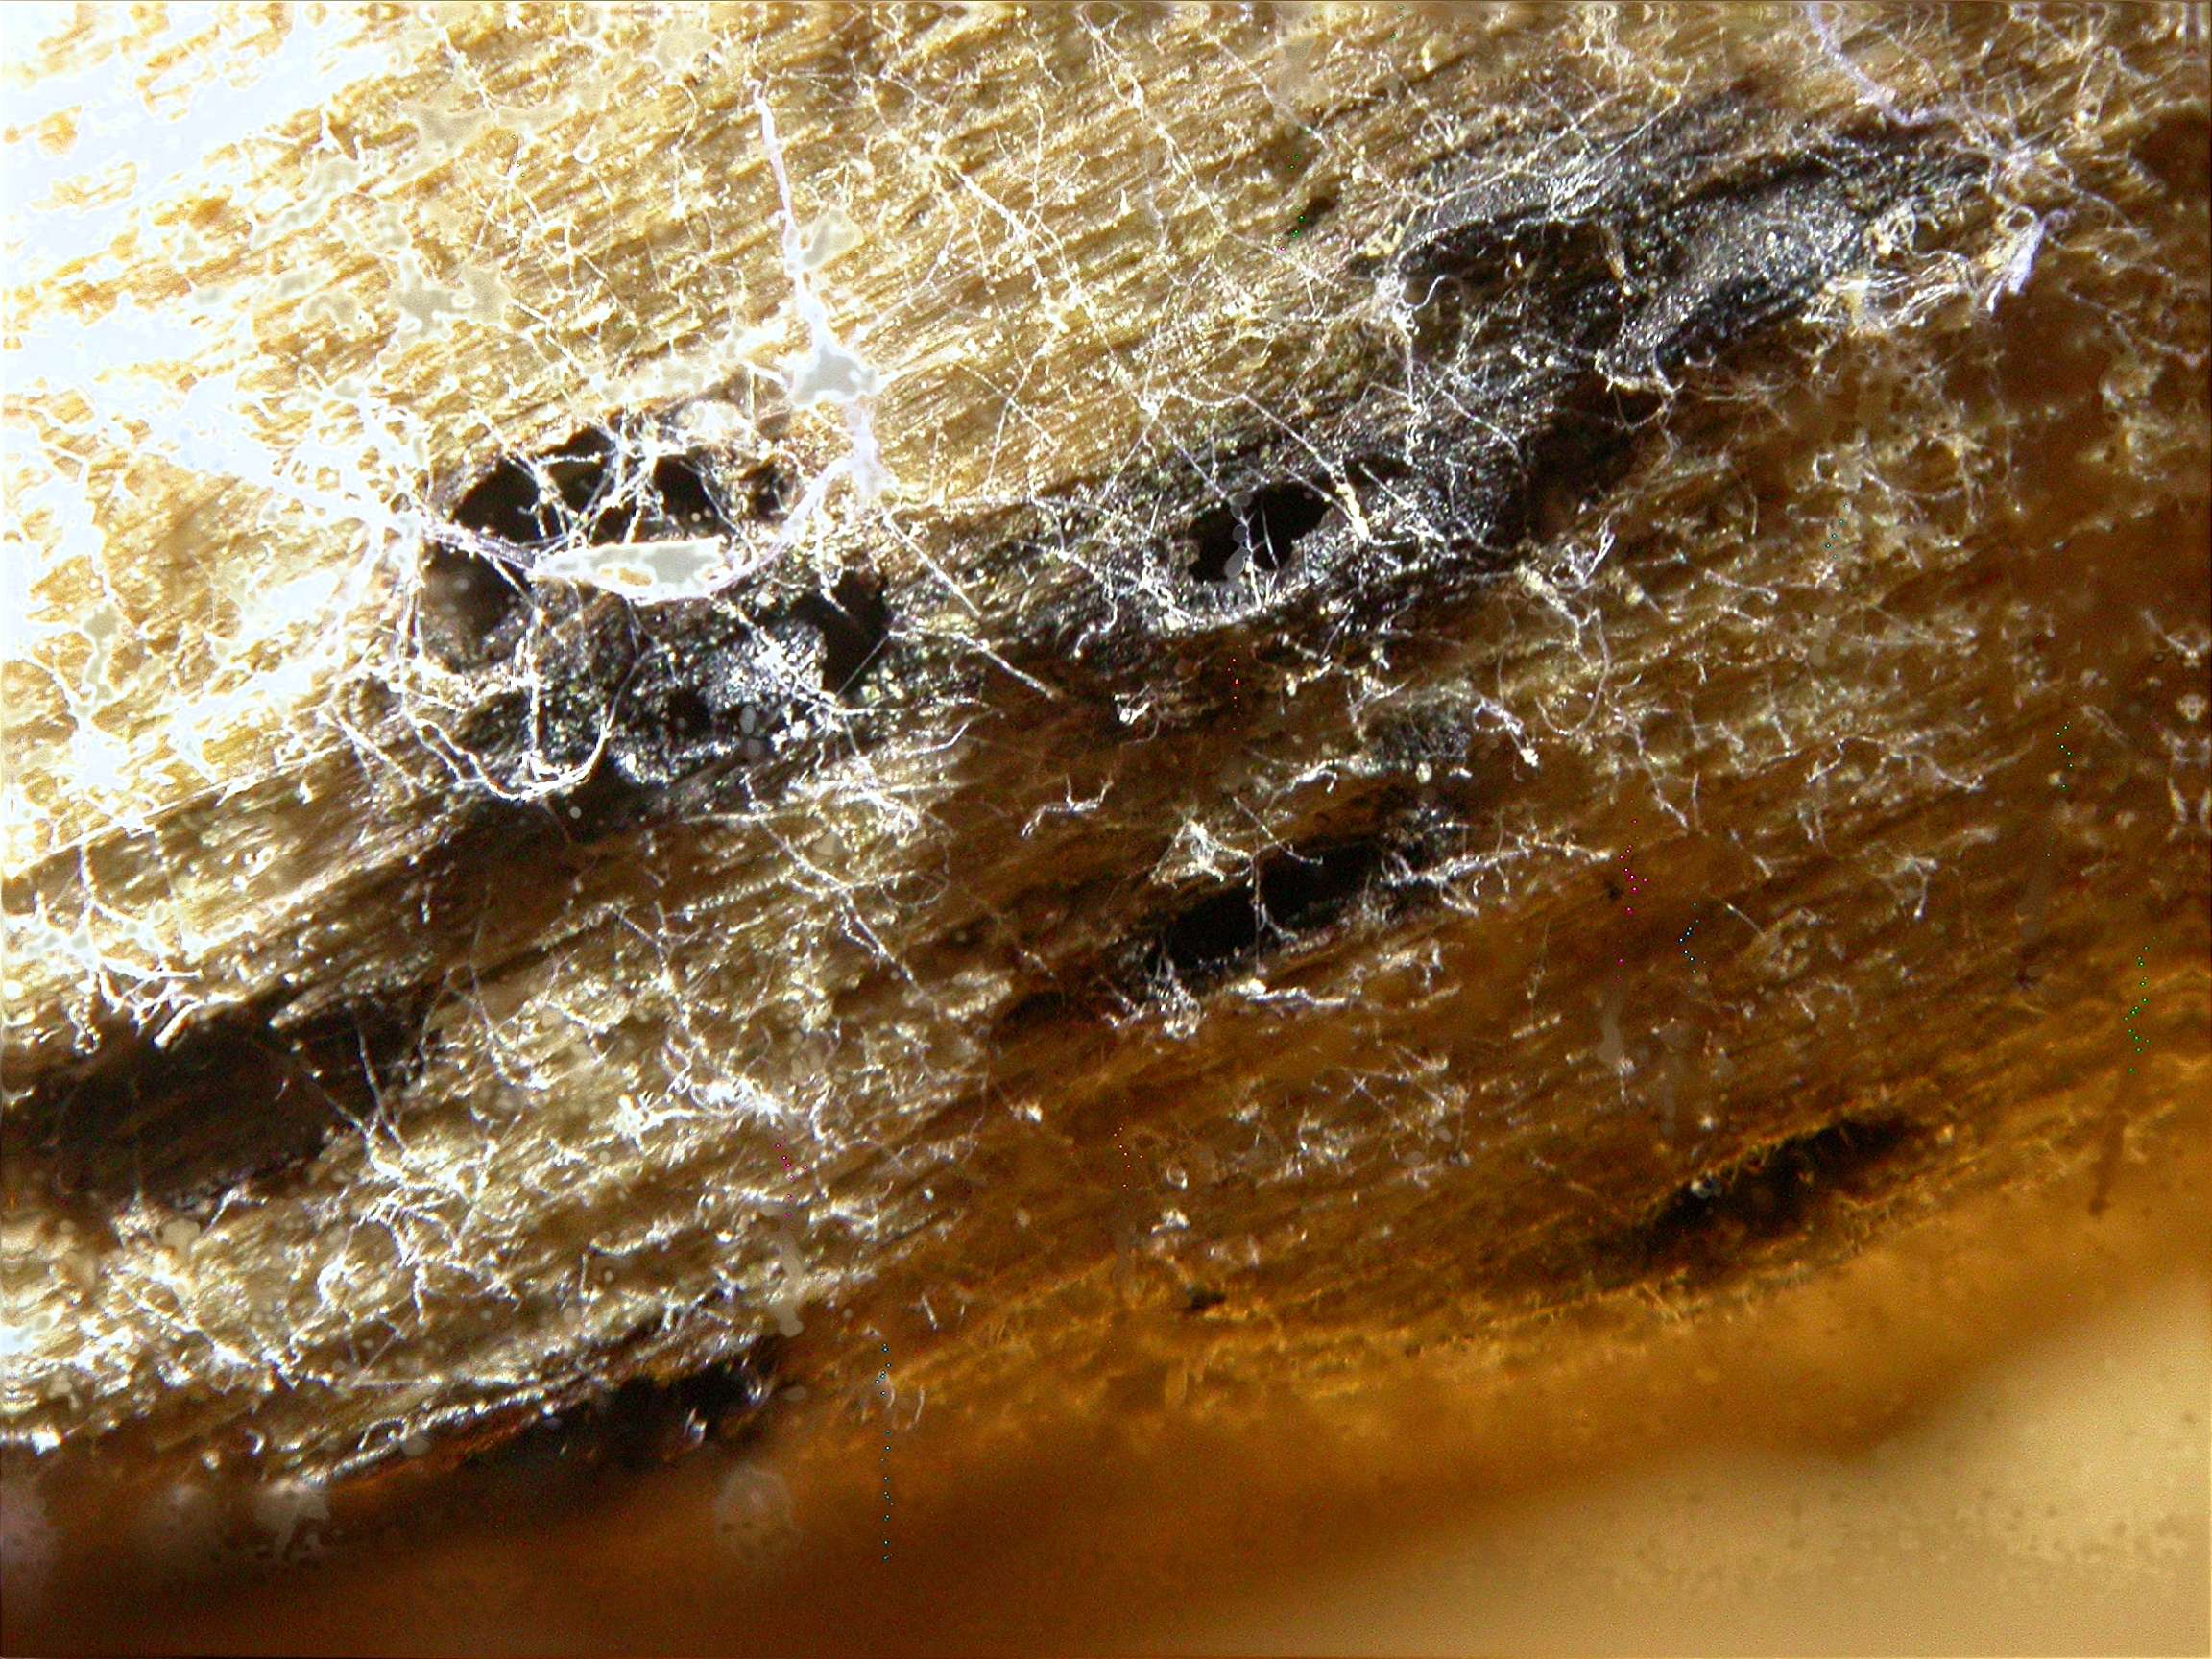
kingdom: Fungi
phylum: Ascomycota
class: Dothideomycetes
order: Dothideales
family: Saccotheciaceae
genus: Metasphaeria
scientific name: Metasphaeria acerina
